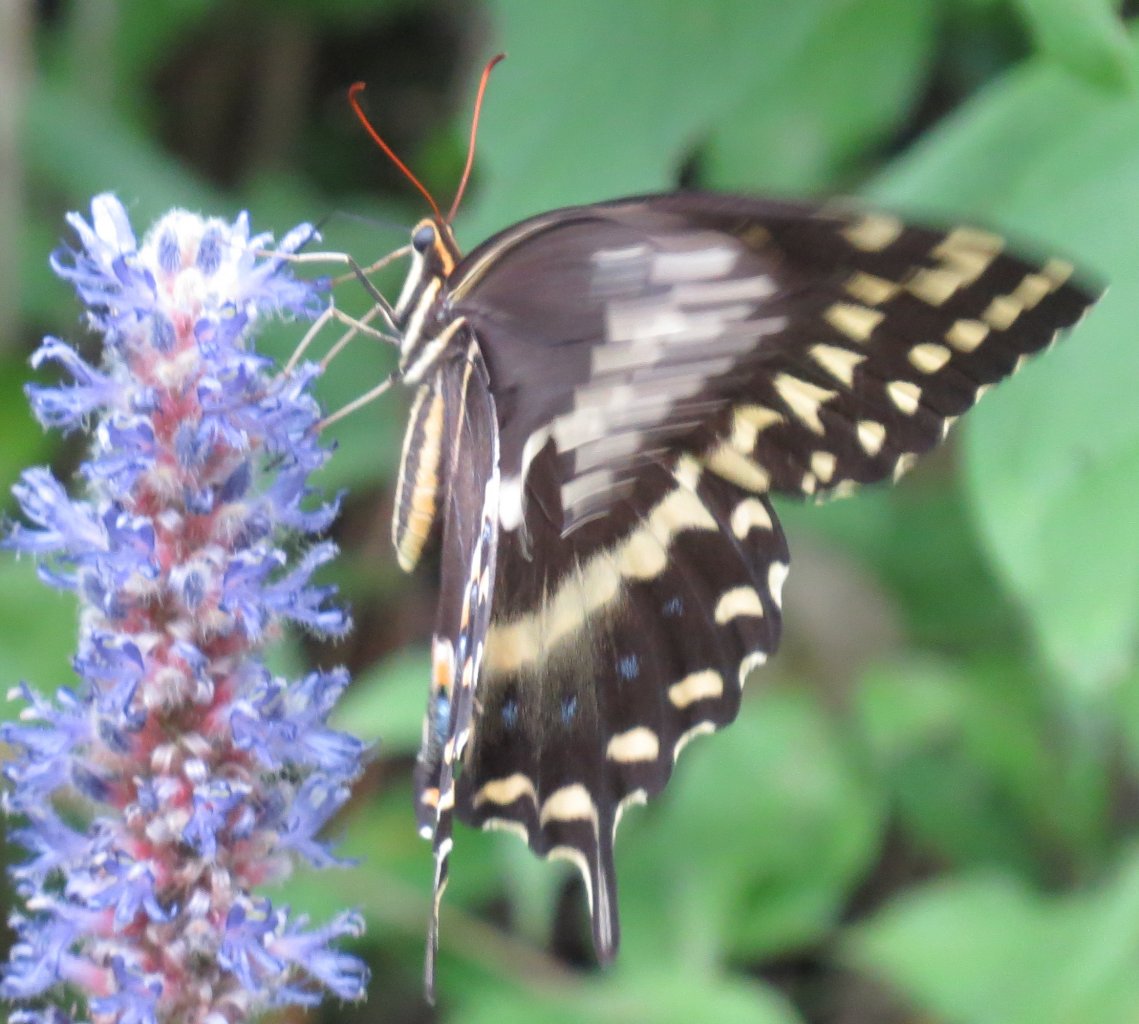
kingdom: Animalia
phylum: Arthropoda
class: Insecta
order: Lepidoptera
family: Papilionidae
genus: Pterourus
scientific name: Pterourus palamedes
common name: Palamedes Swallowtail
